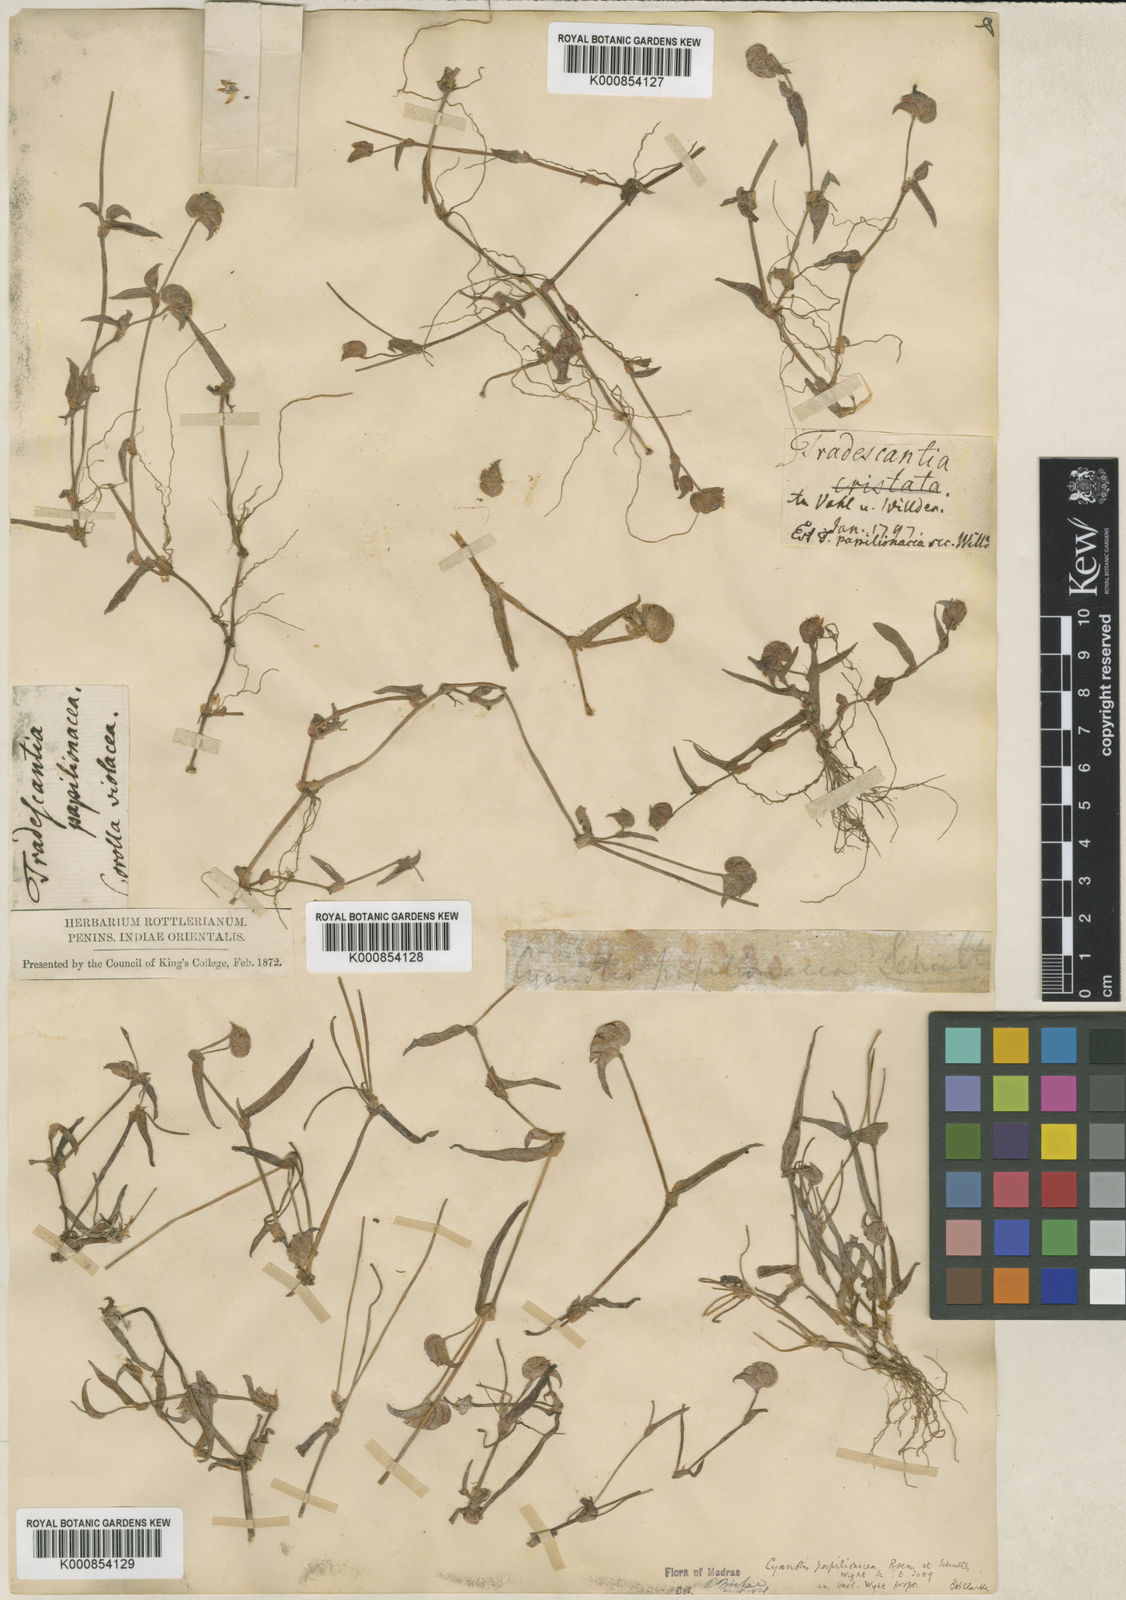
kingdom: Plantae
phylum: Tracheophyta
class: Liliopsida
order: Commelinales
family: Commelinaceae
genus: Cyanotis
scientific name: Cyanotis cristata
